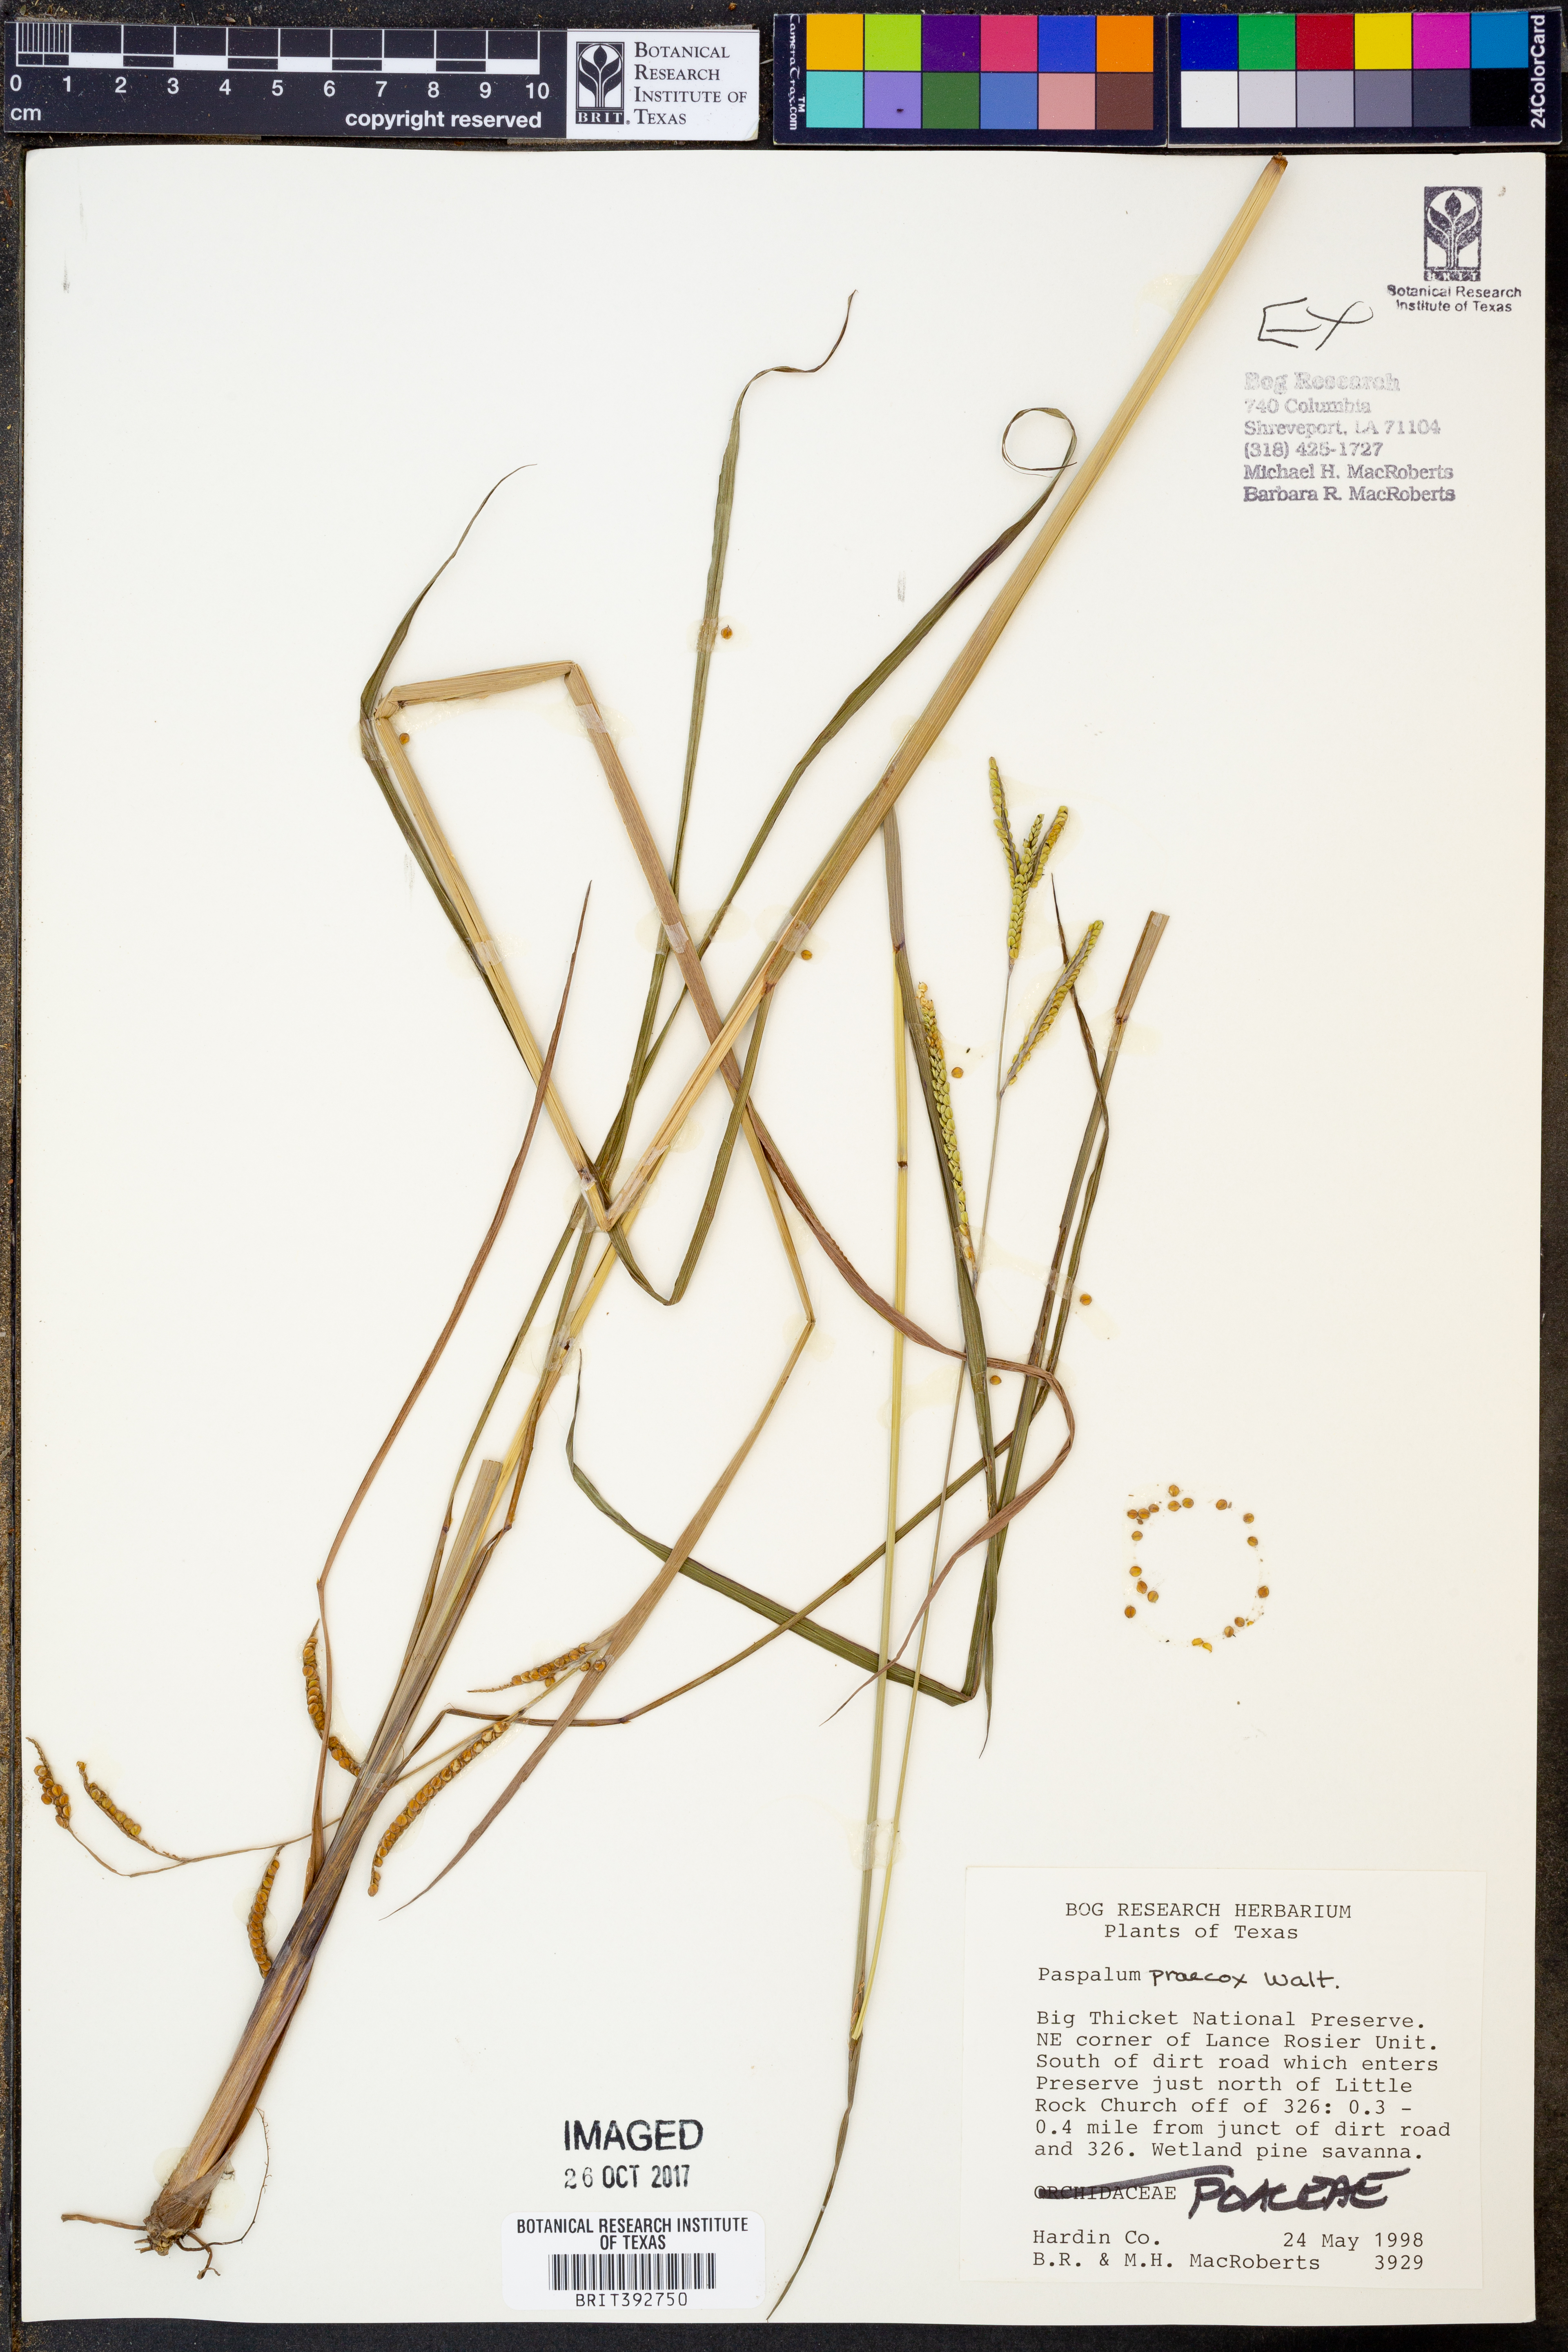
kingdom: Plantae
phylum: Tracheophyta
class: Liliopsida
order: Poales
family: Poaceae
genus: Paspalum
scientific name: Paspalum praecox
